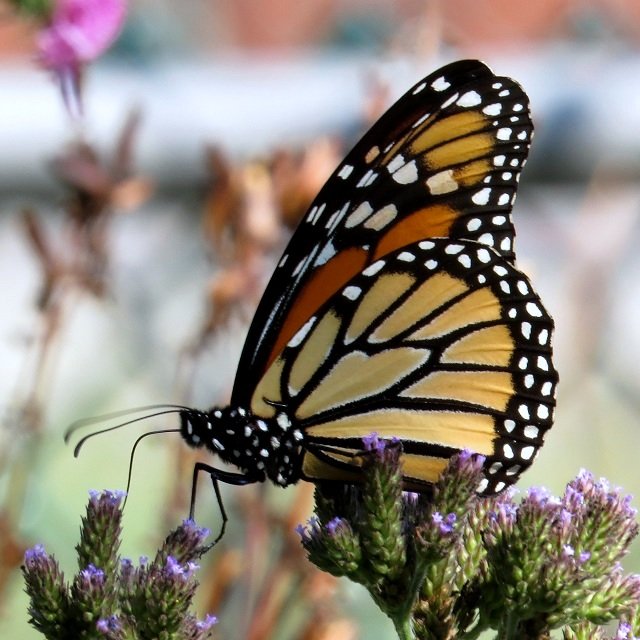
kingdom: Animalia
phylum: Arthropoda
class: Insecta
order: Lepidoptera
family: Nymphalidae
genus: Danaus
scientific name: Danaus plexippus
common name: Monarch
